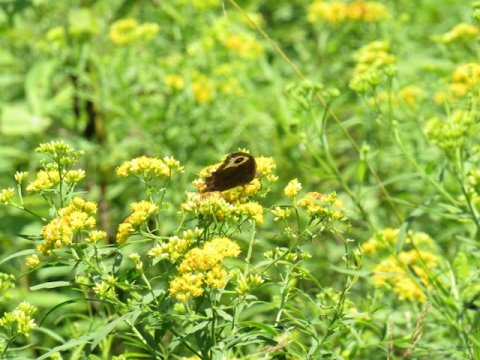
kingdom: Animalia
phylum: Arthropoda
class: Insecta
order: Lepidoptera
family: Nymphalidae
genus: Cercyonis
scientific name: Cercyonis pegala
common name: Common Wood-Nymph
